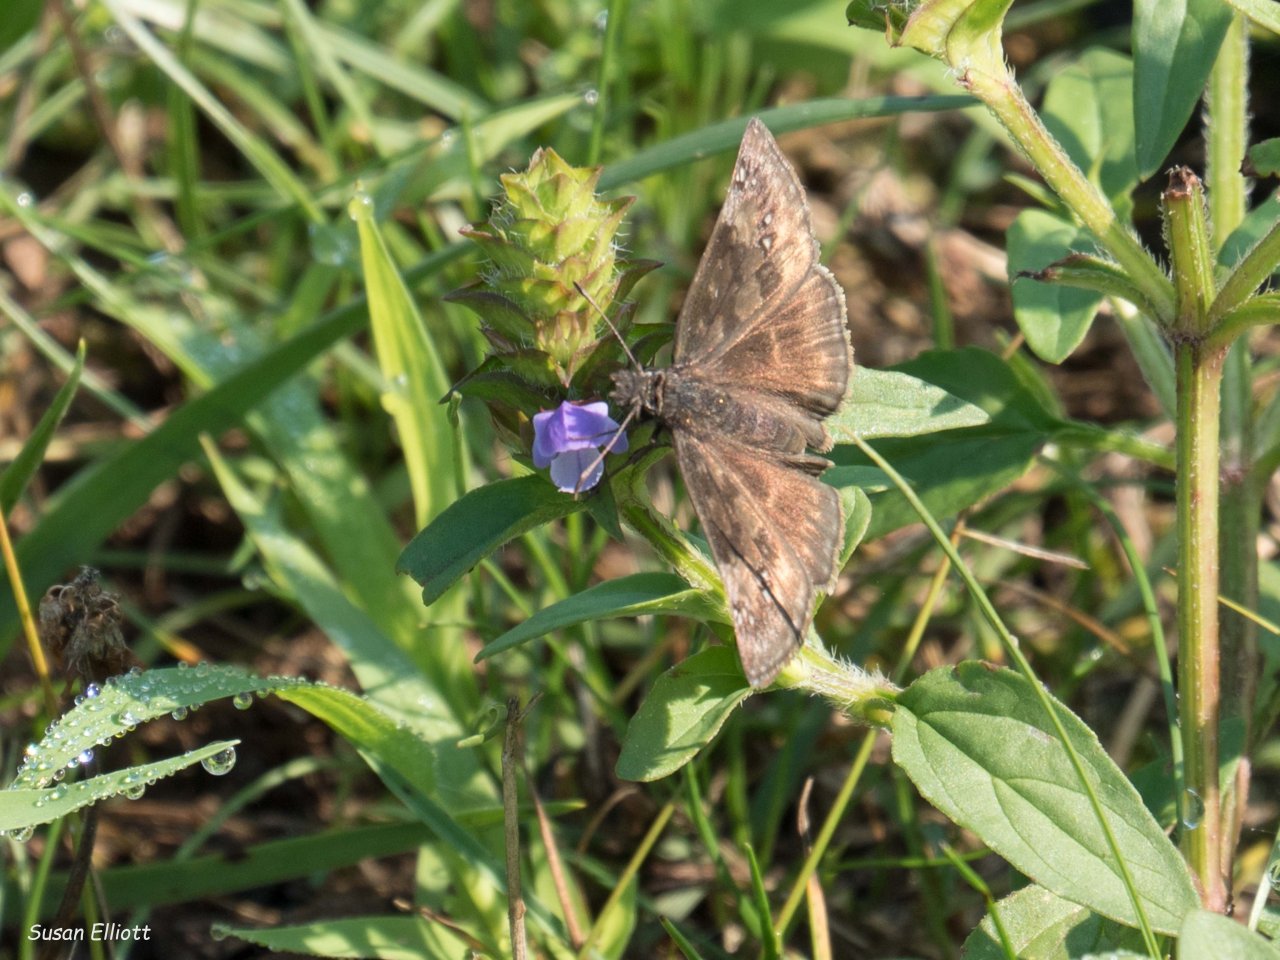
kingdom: Animalia
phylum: Arthropoda
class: Insecta
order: Lepidoptera
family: Hesperiidae
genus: Erynnis
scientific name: Erynnis
